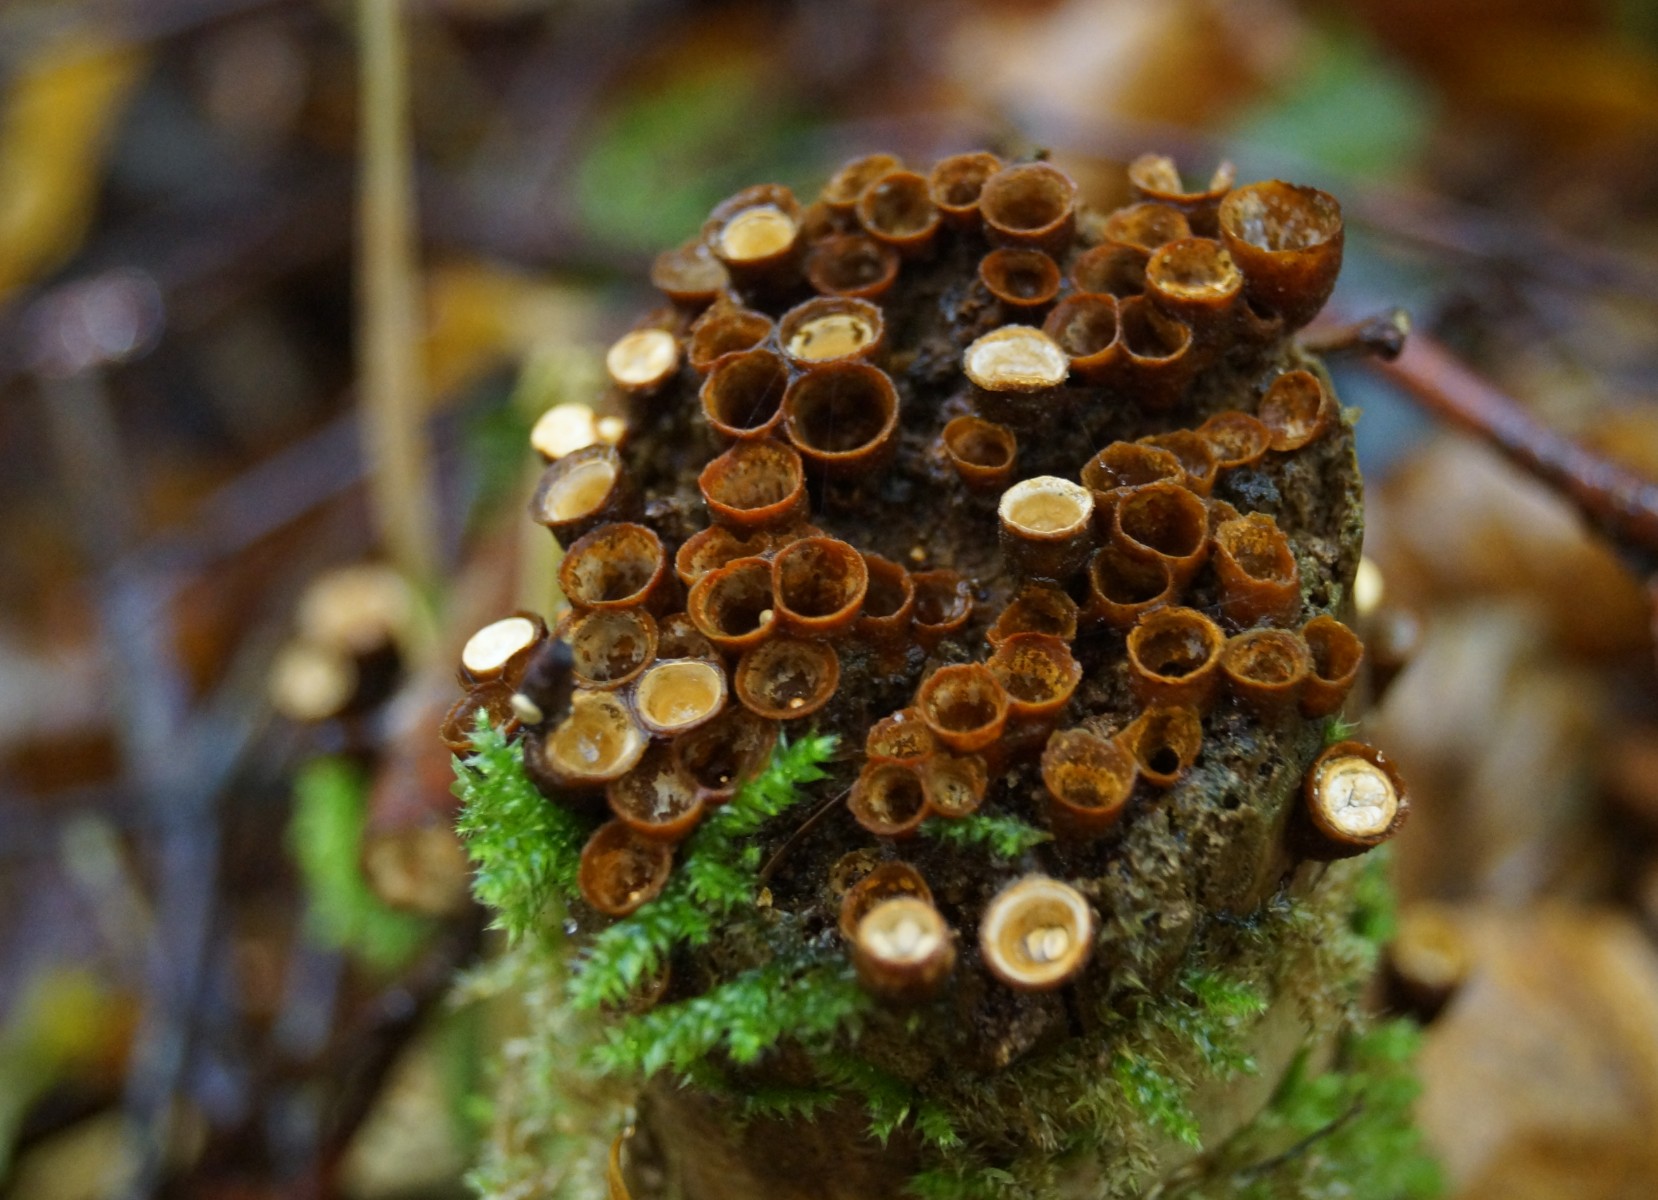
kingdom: Fungi
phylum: Basidiomycota
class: Agaricomycetes
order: Agaricales
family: Nidulariaceae
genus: Crucibulum
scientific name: Crucibulum crucibuliforme
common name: krukkesvamp
